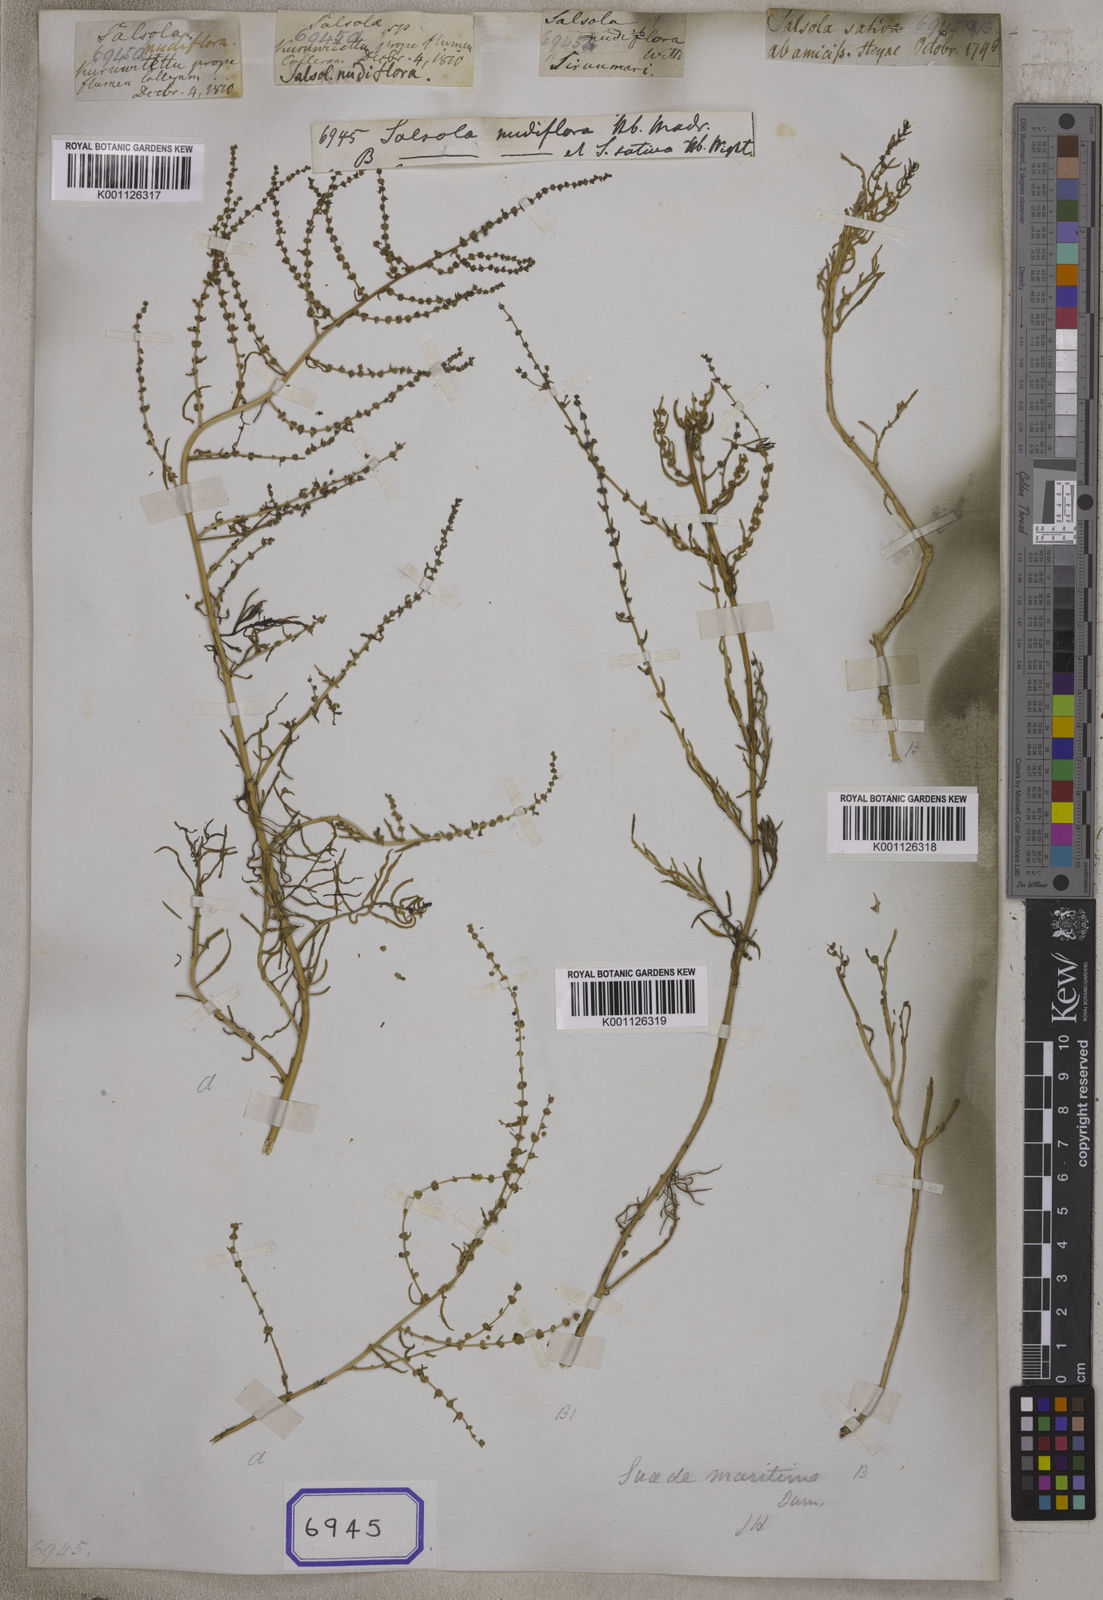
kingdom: Plantae
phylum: Tracheophyta
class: Magnoliopsida
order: Caryophyllales
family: Amaranthaceae
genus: Salsola
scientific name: Salsola
